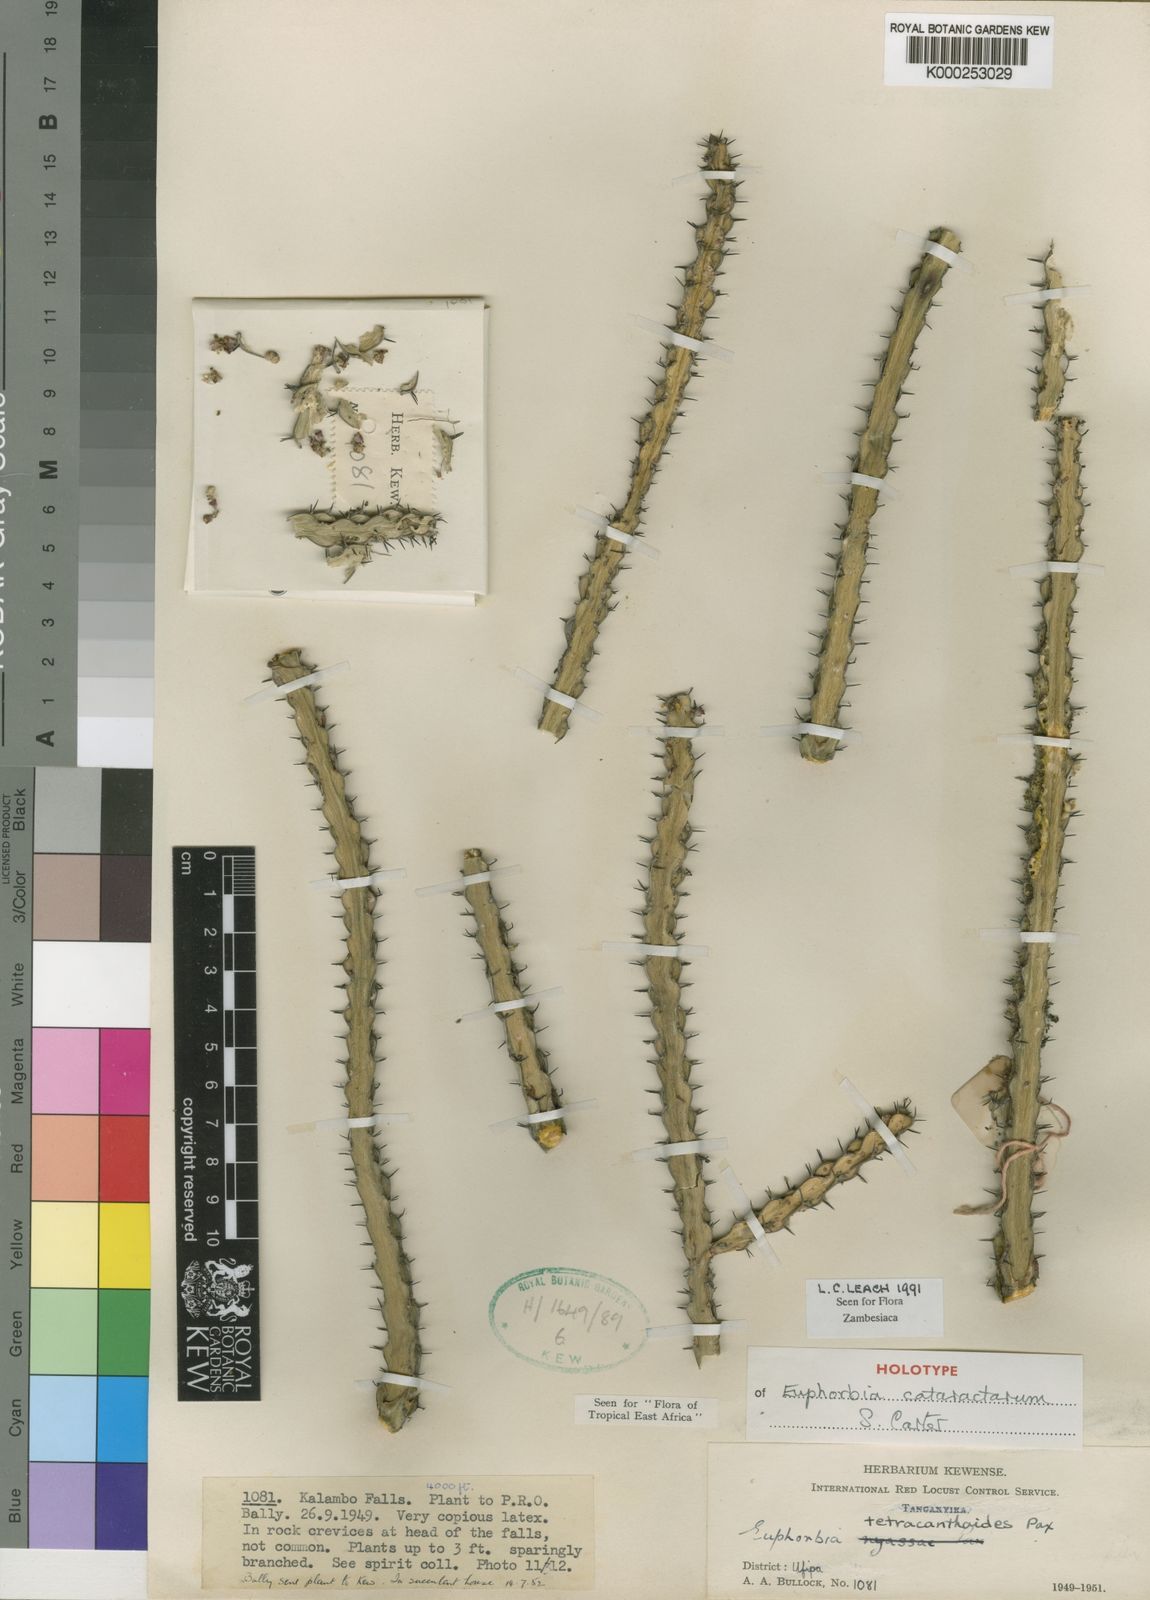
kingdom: Plantae
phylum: Tracheophyta
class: Magnoliopsida
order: Malpighiales
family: Euphorbiaceae
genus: Euphorbia
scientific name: Euphorbia cataractarum
